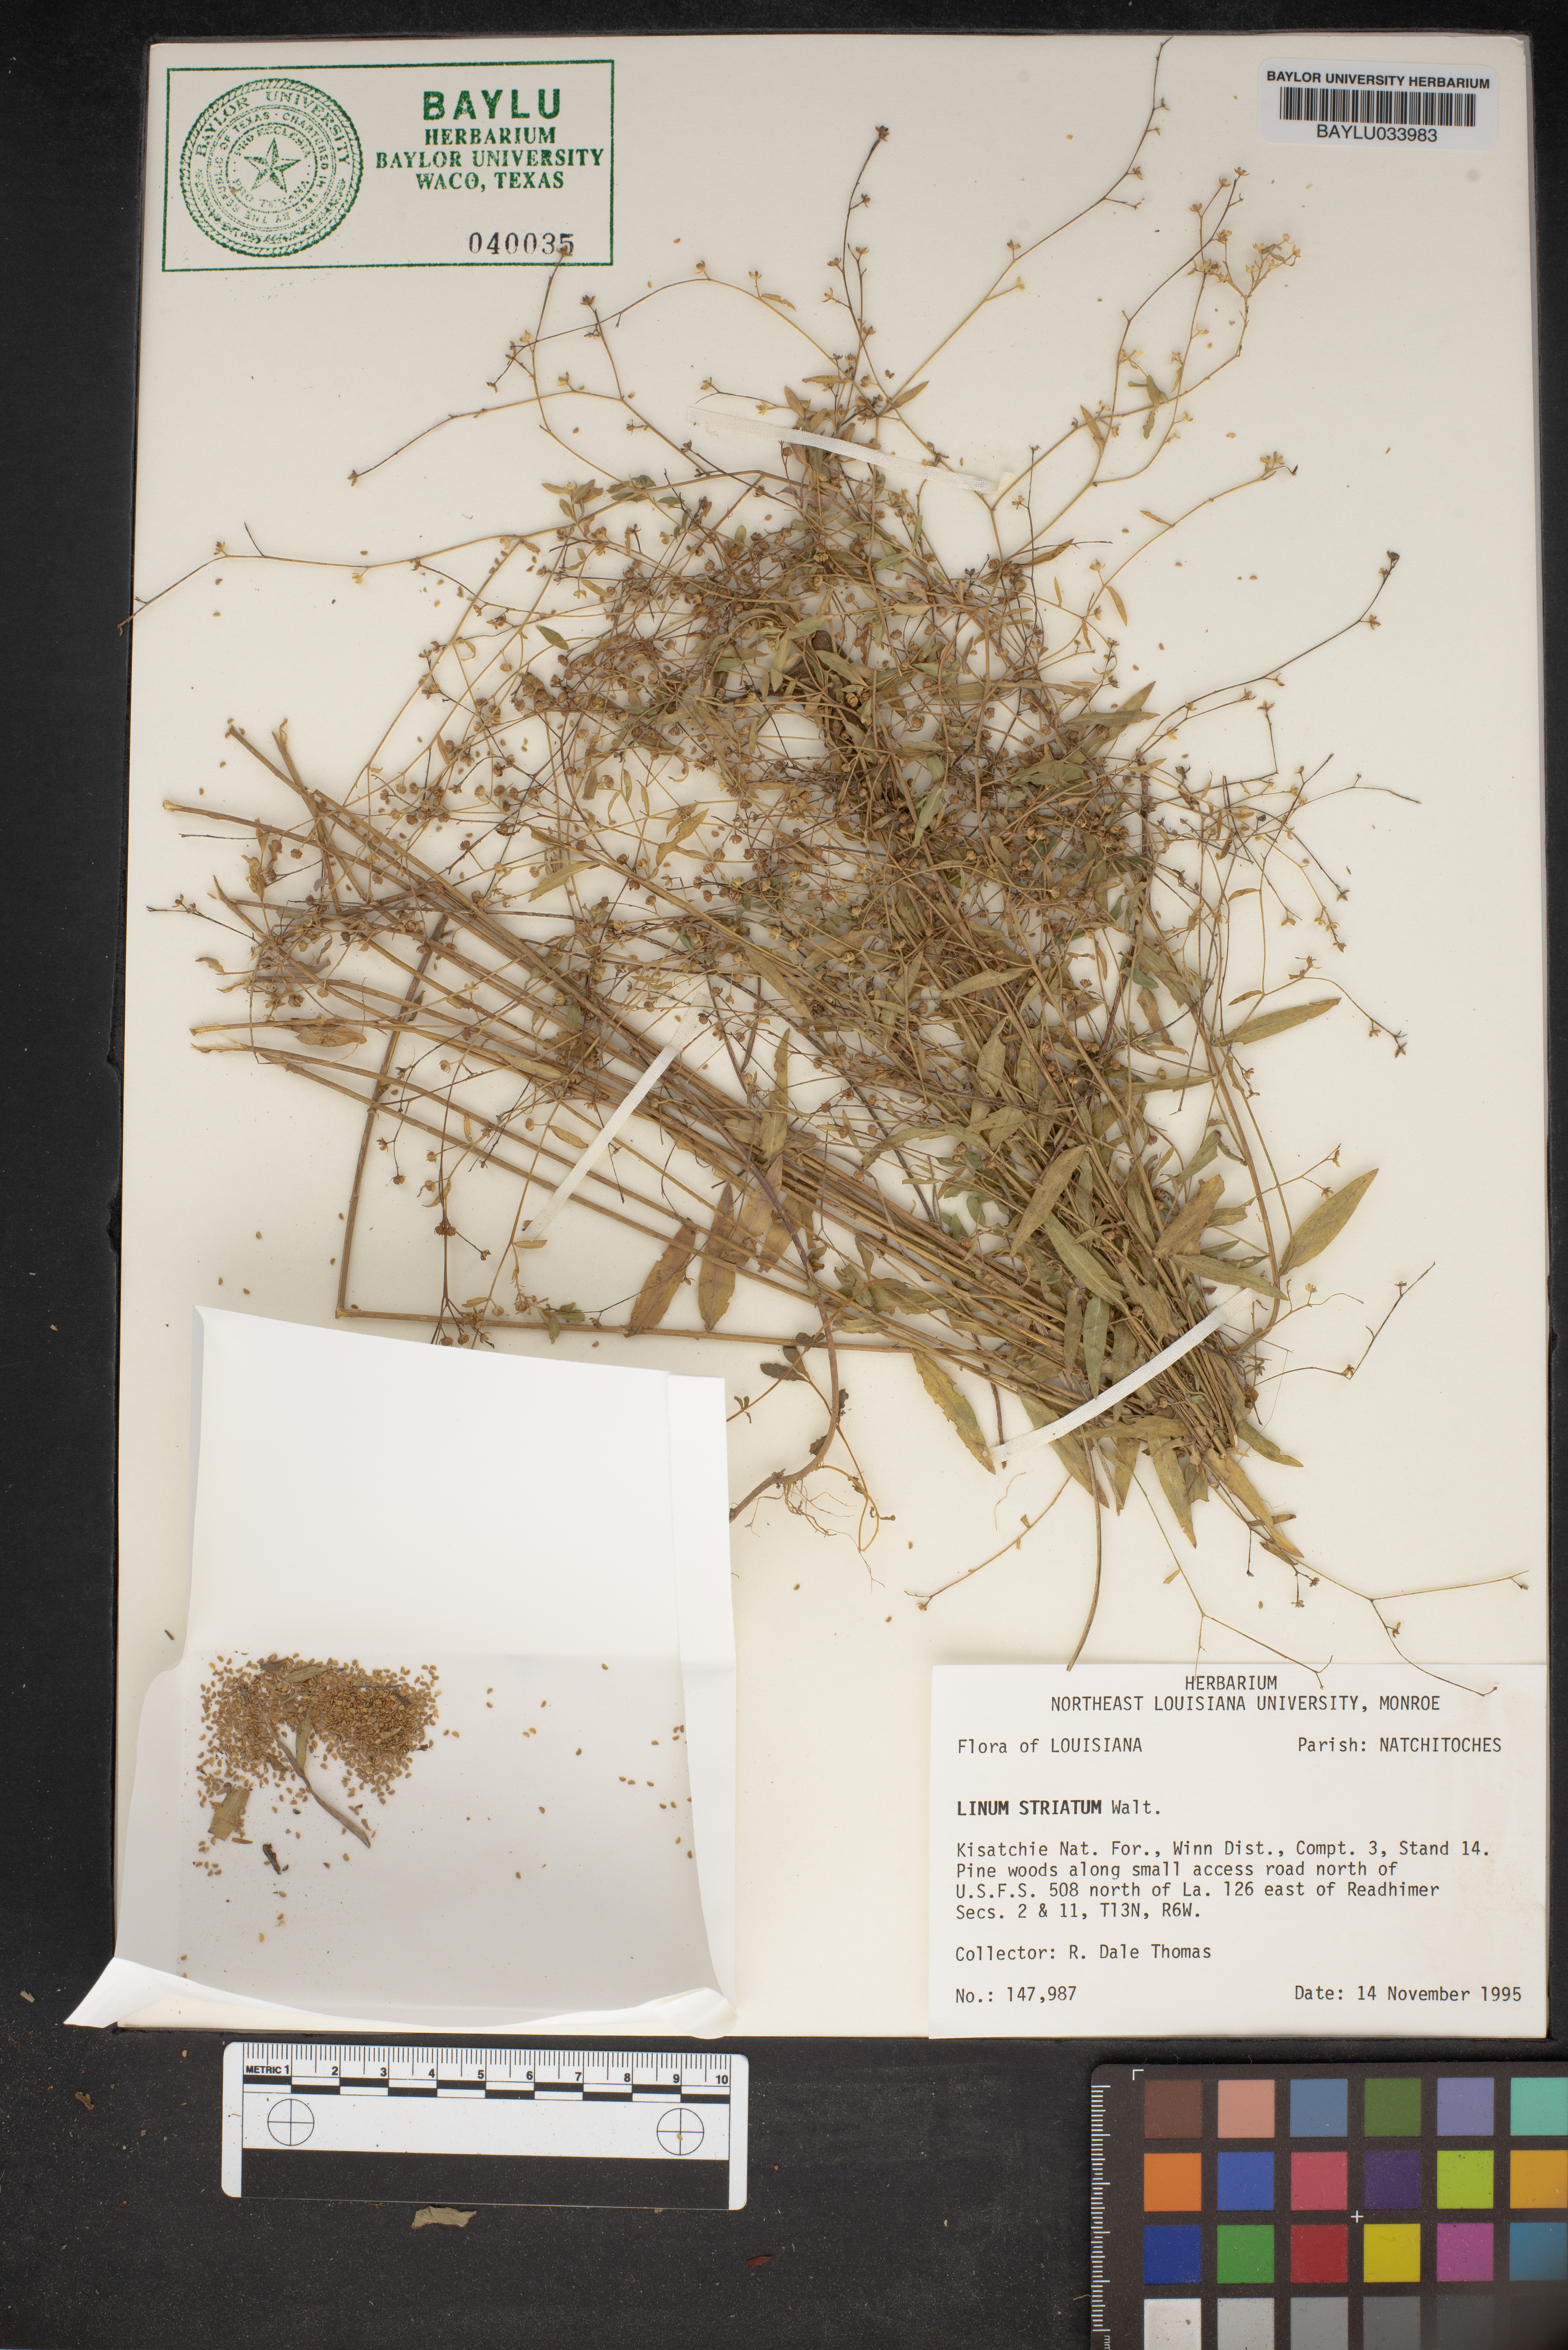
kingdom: Plantae
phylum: Tracheophyta
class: Magnoliopsida
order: Malpighiales
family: Linaceae
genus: Linum
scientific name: Linum striatum
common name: Ridged yellow flax
